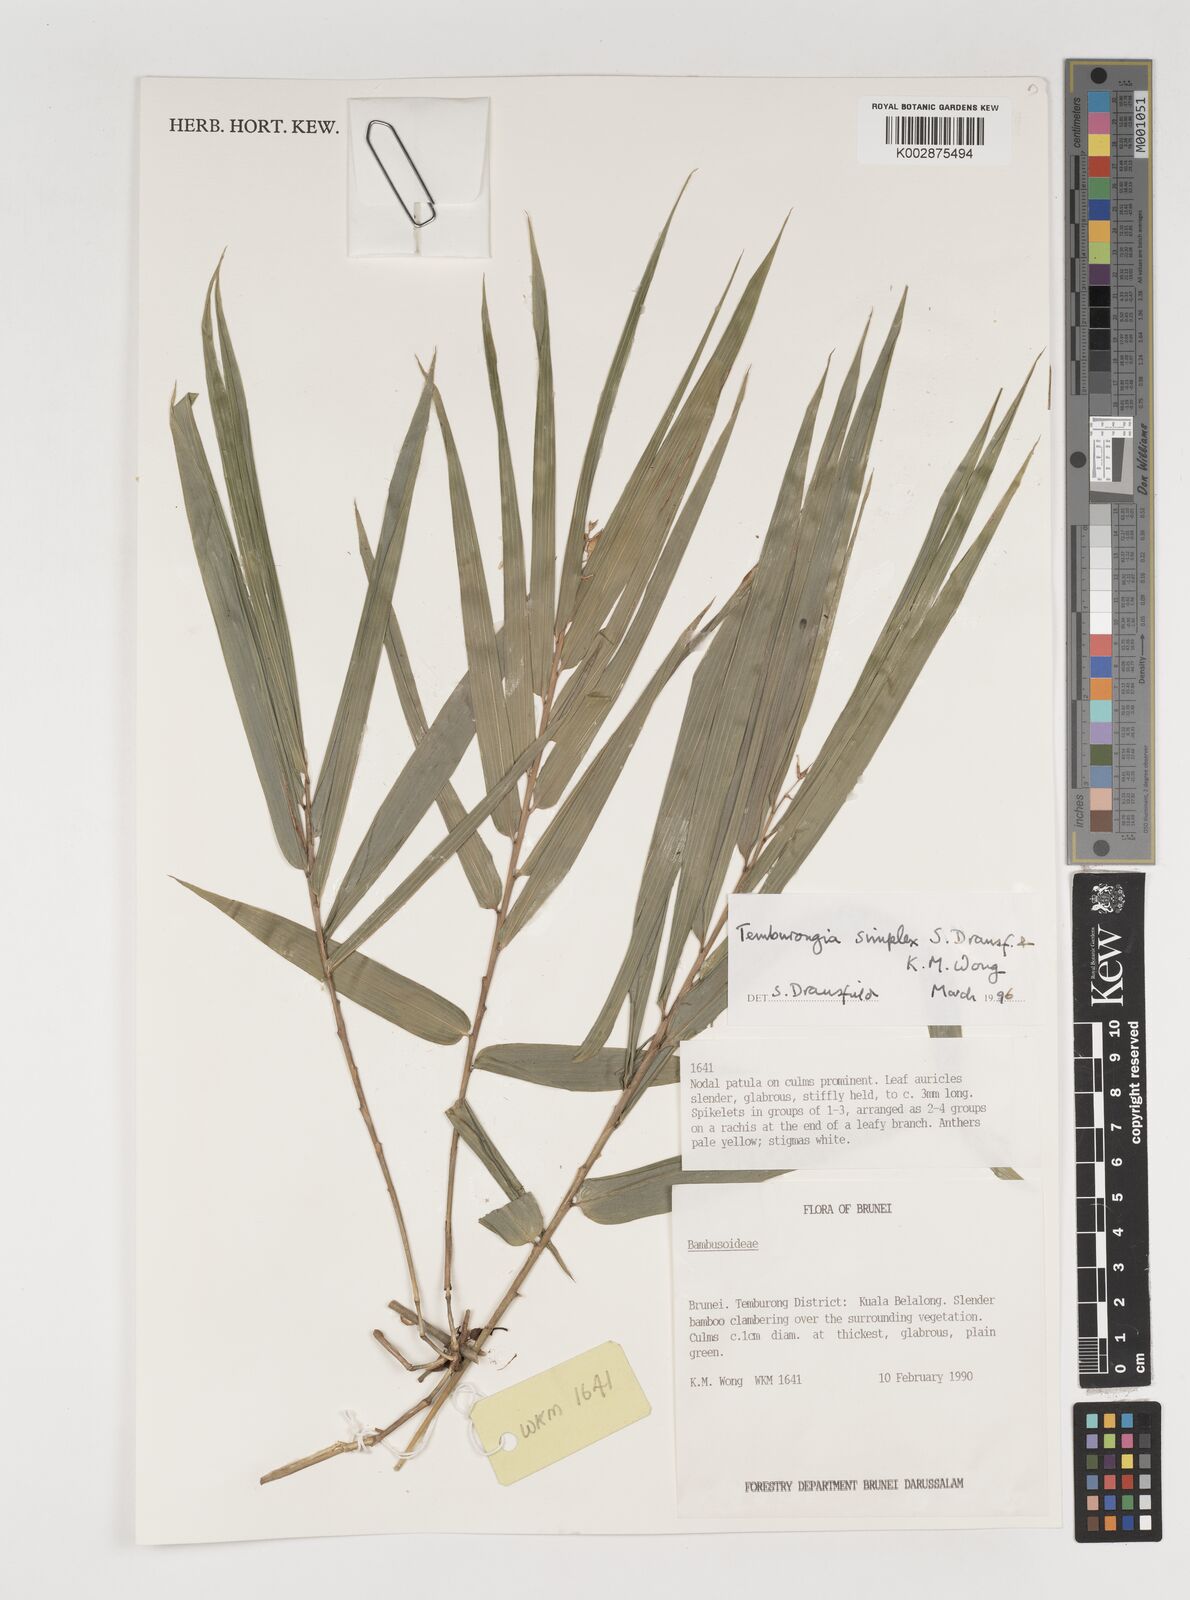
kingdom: Plantae
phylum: Tracheophyta
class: Liliopsida
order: Poales
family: Poaceae
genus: Temburongia
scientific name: Temburongia
